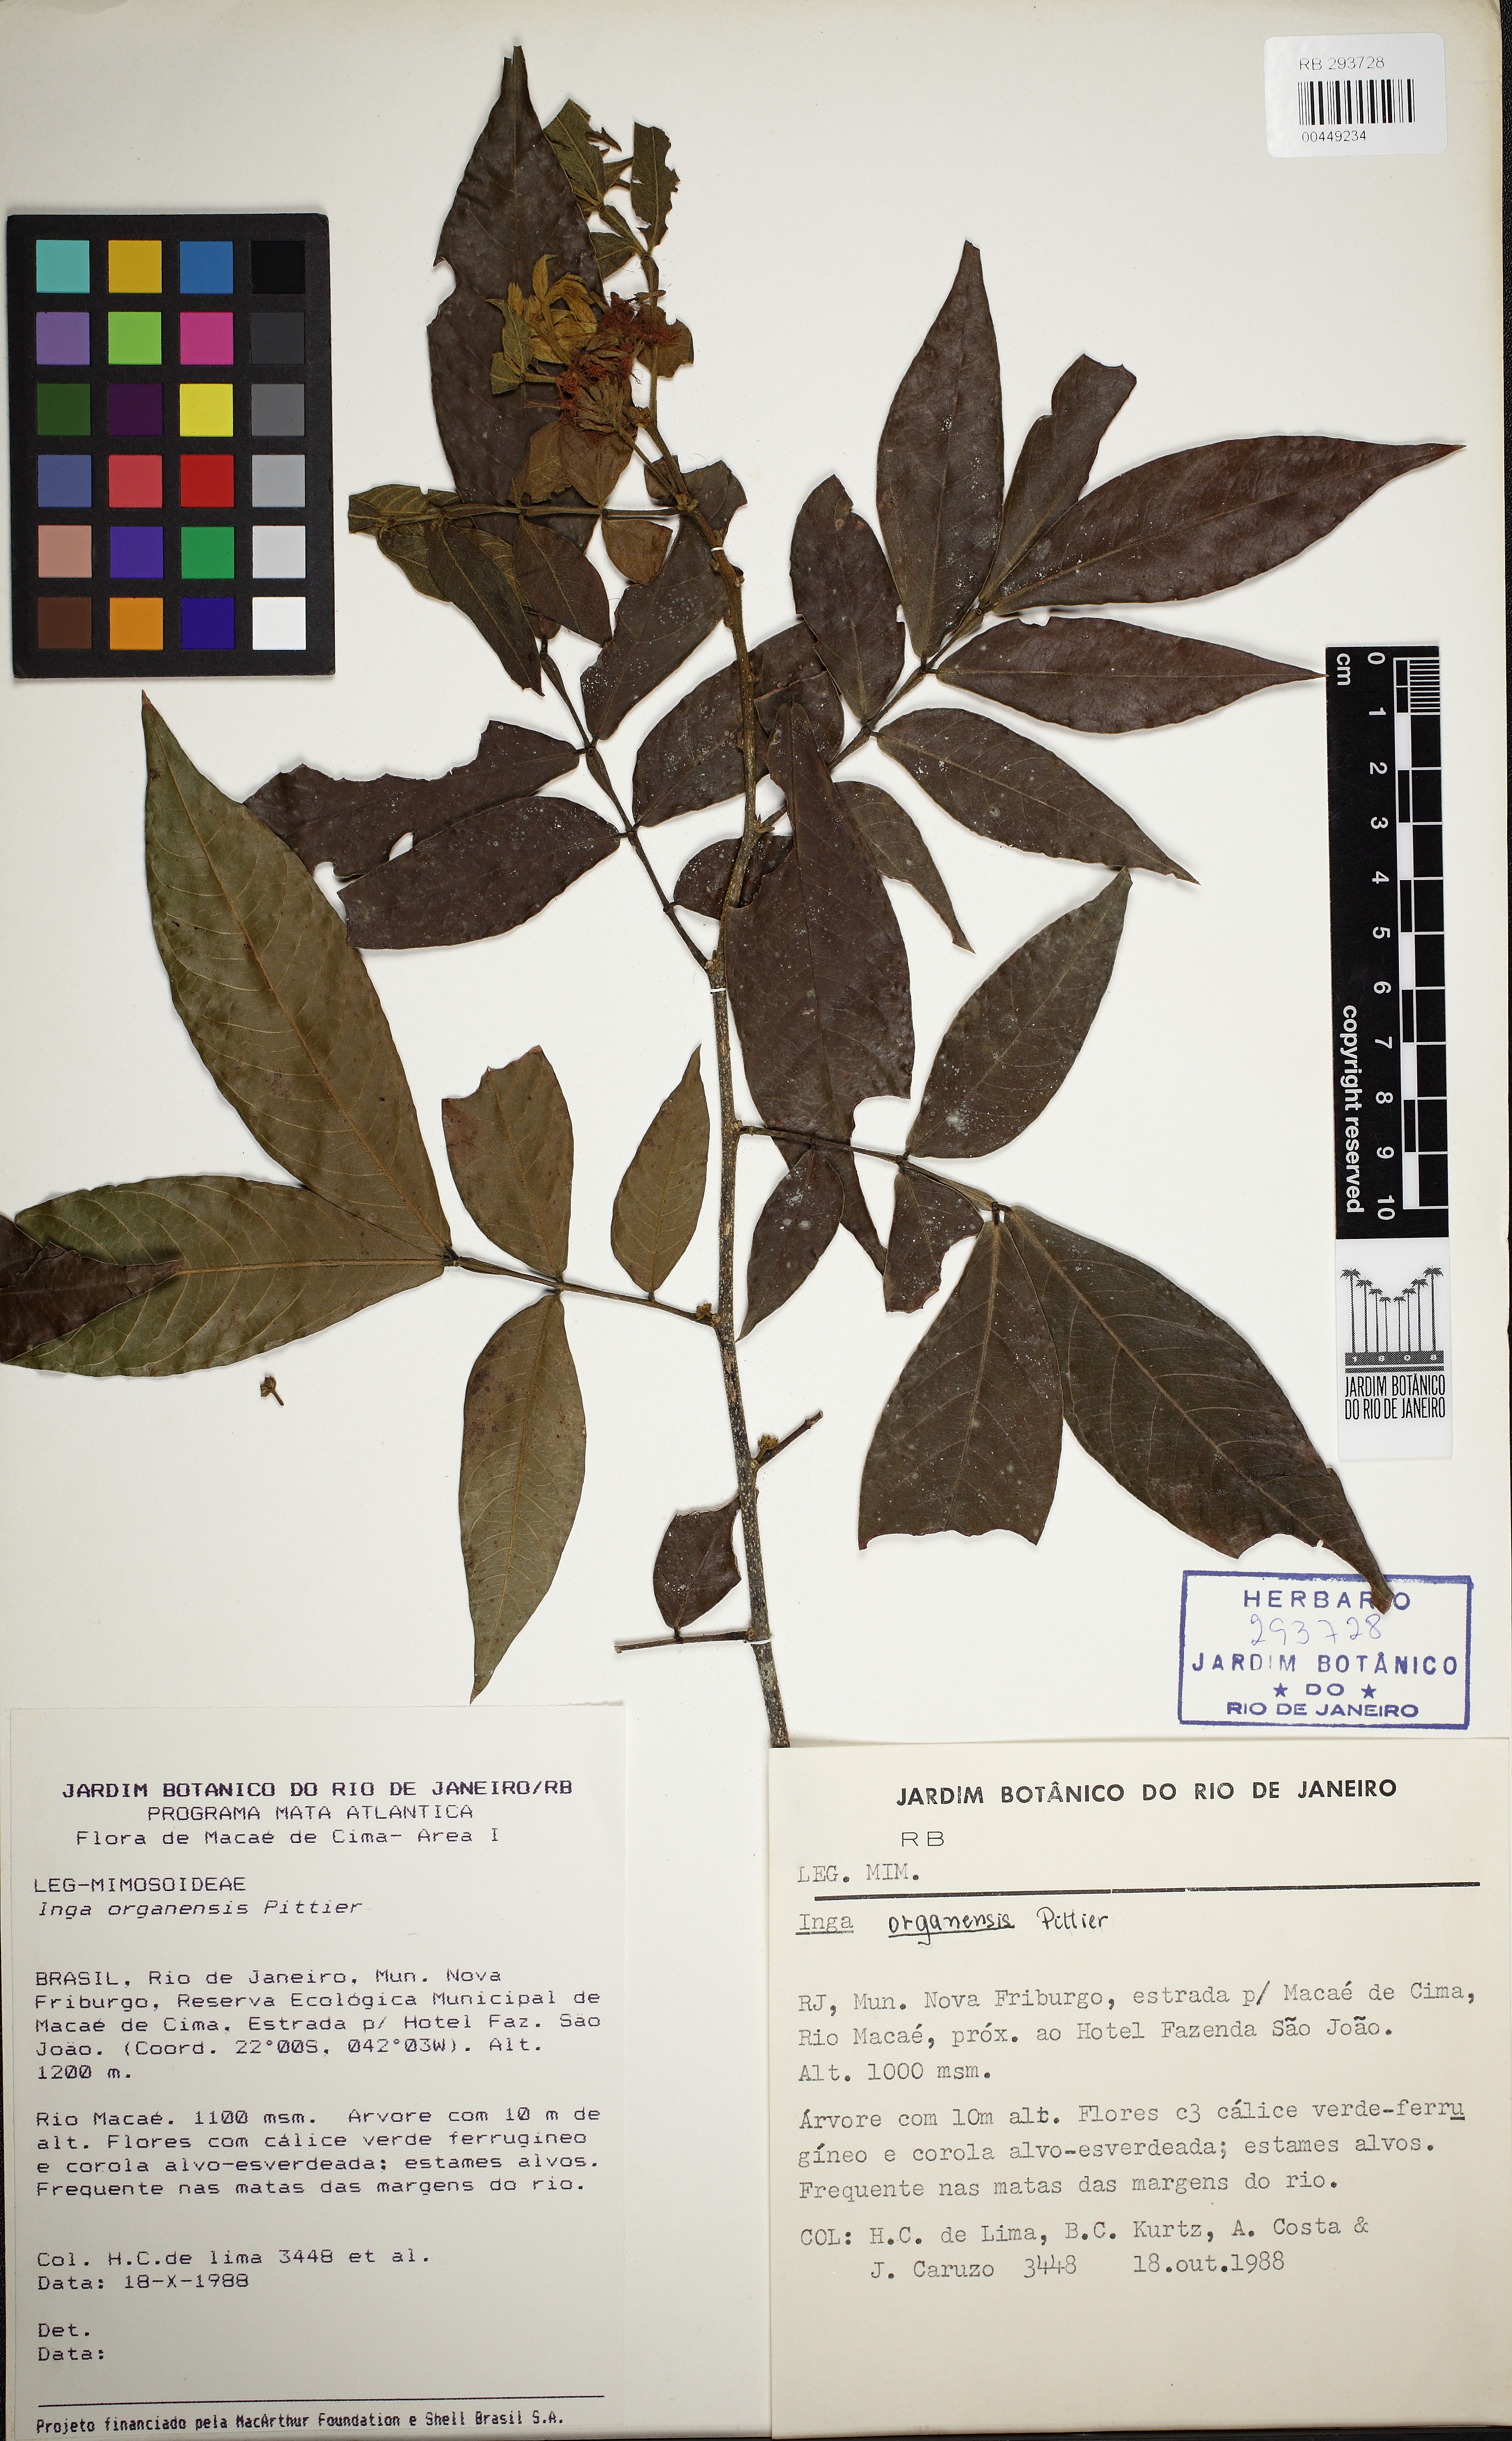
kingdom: Plantae
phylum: Tracheophyta
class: Magnoliopsida
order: Fabales
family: Fabaceae
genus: Inga
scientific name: Inga mendoncaei
